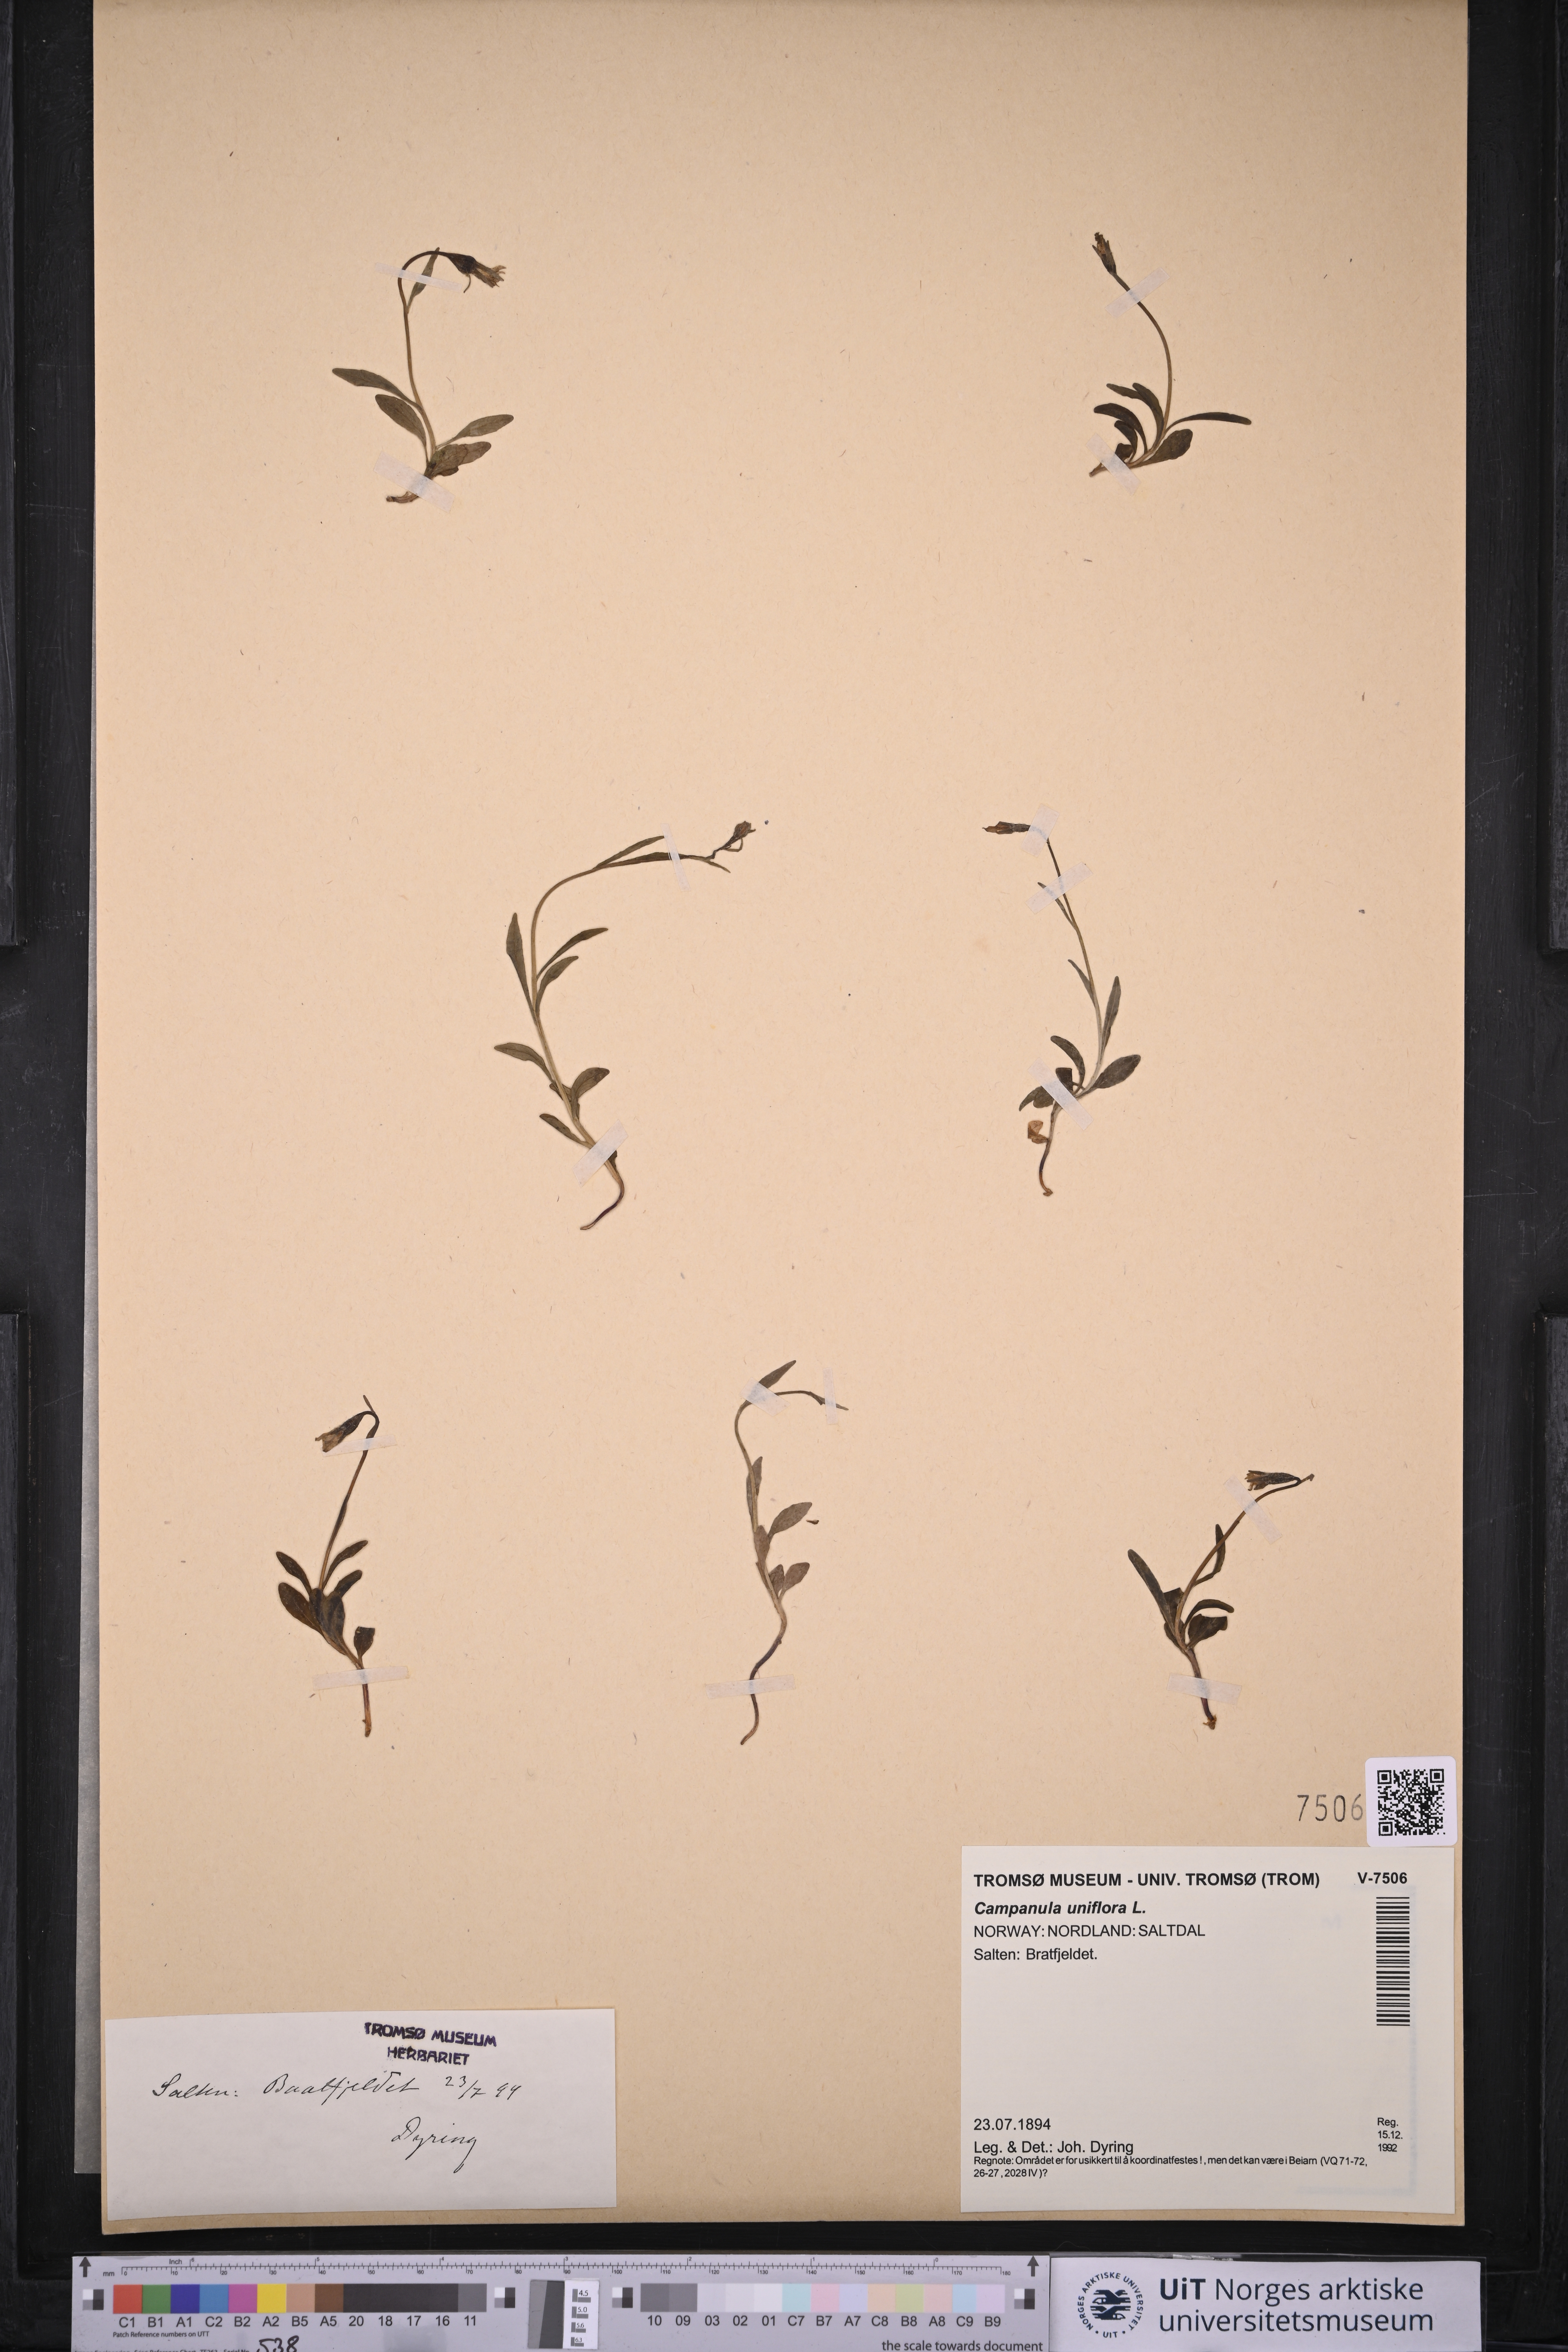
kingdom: Plantae
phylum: Tracheophyta
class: Magnoliopsida
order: Asterales
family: Campanulaceae
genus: Melanocalyx
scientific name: Melanocalyx uniflora
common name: Alpine harebell
